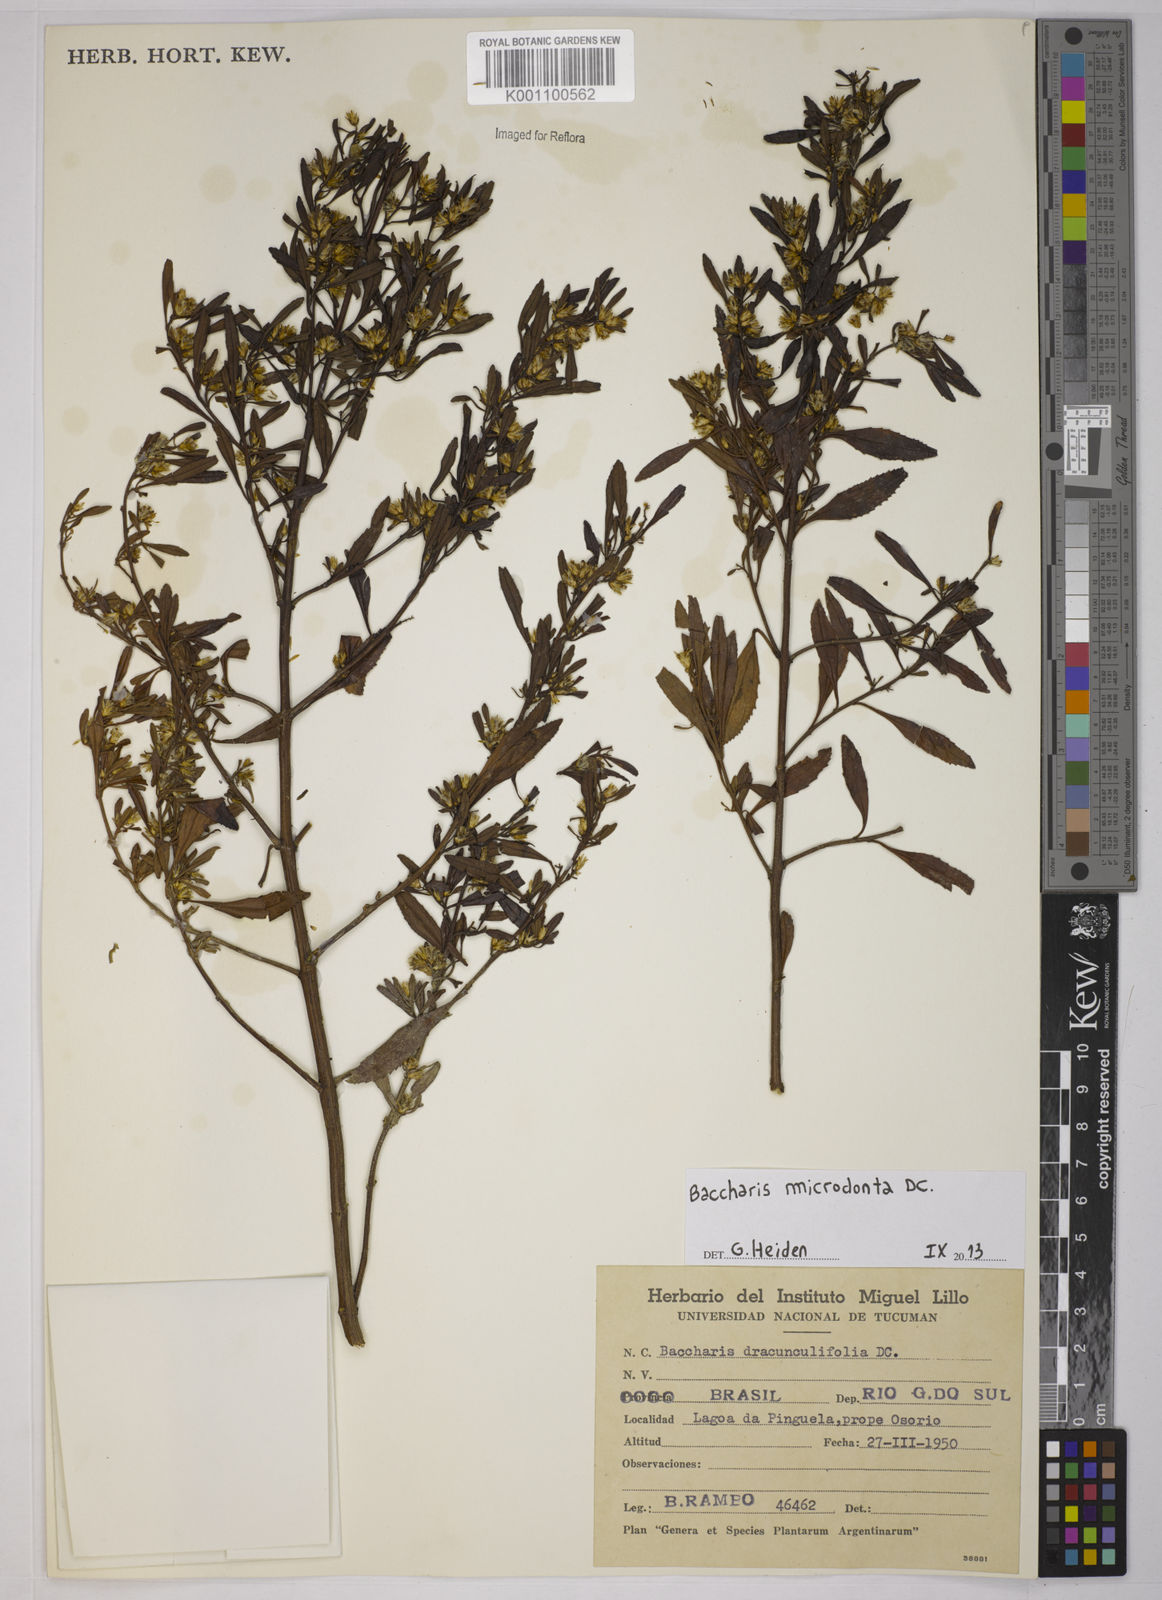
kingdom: Plantae
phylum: Tracheophyta
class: Magnoliopsida
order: Asterales
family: Asteraceae
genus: Baccharis
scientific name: Baccharis microdonta
